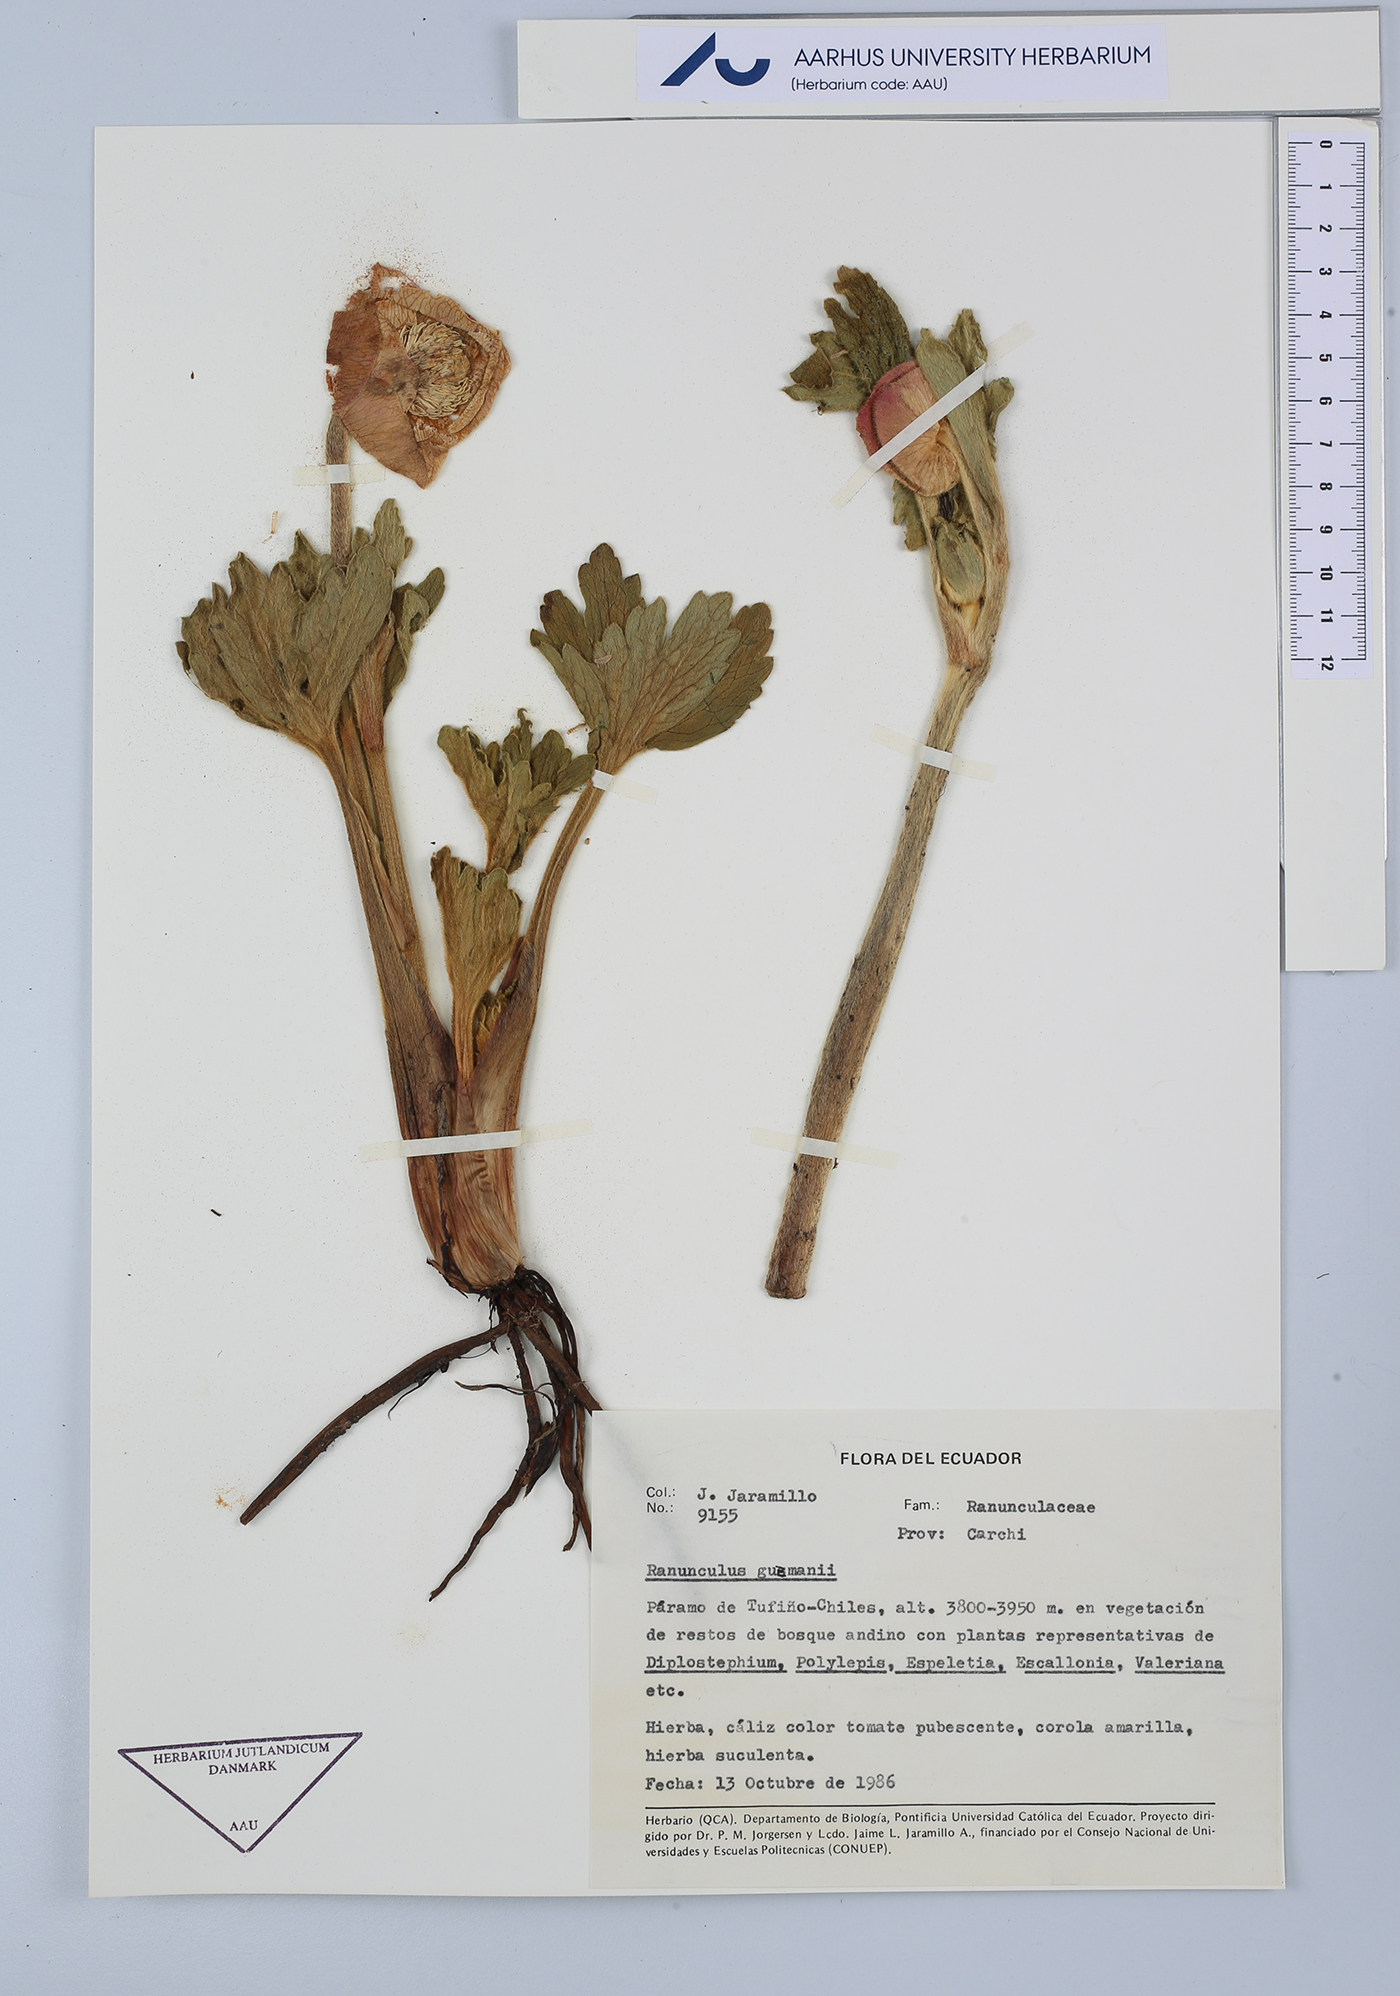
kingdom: Plantae
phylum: Tracheophyta
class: Magnoliopsida
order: Ranunculales
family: Ranunculaceae
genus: Krapfia
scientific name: Krapfia ranunculina
